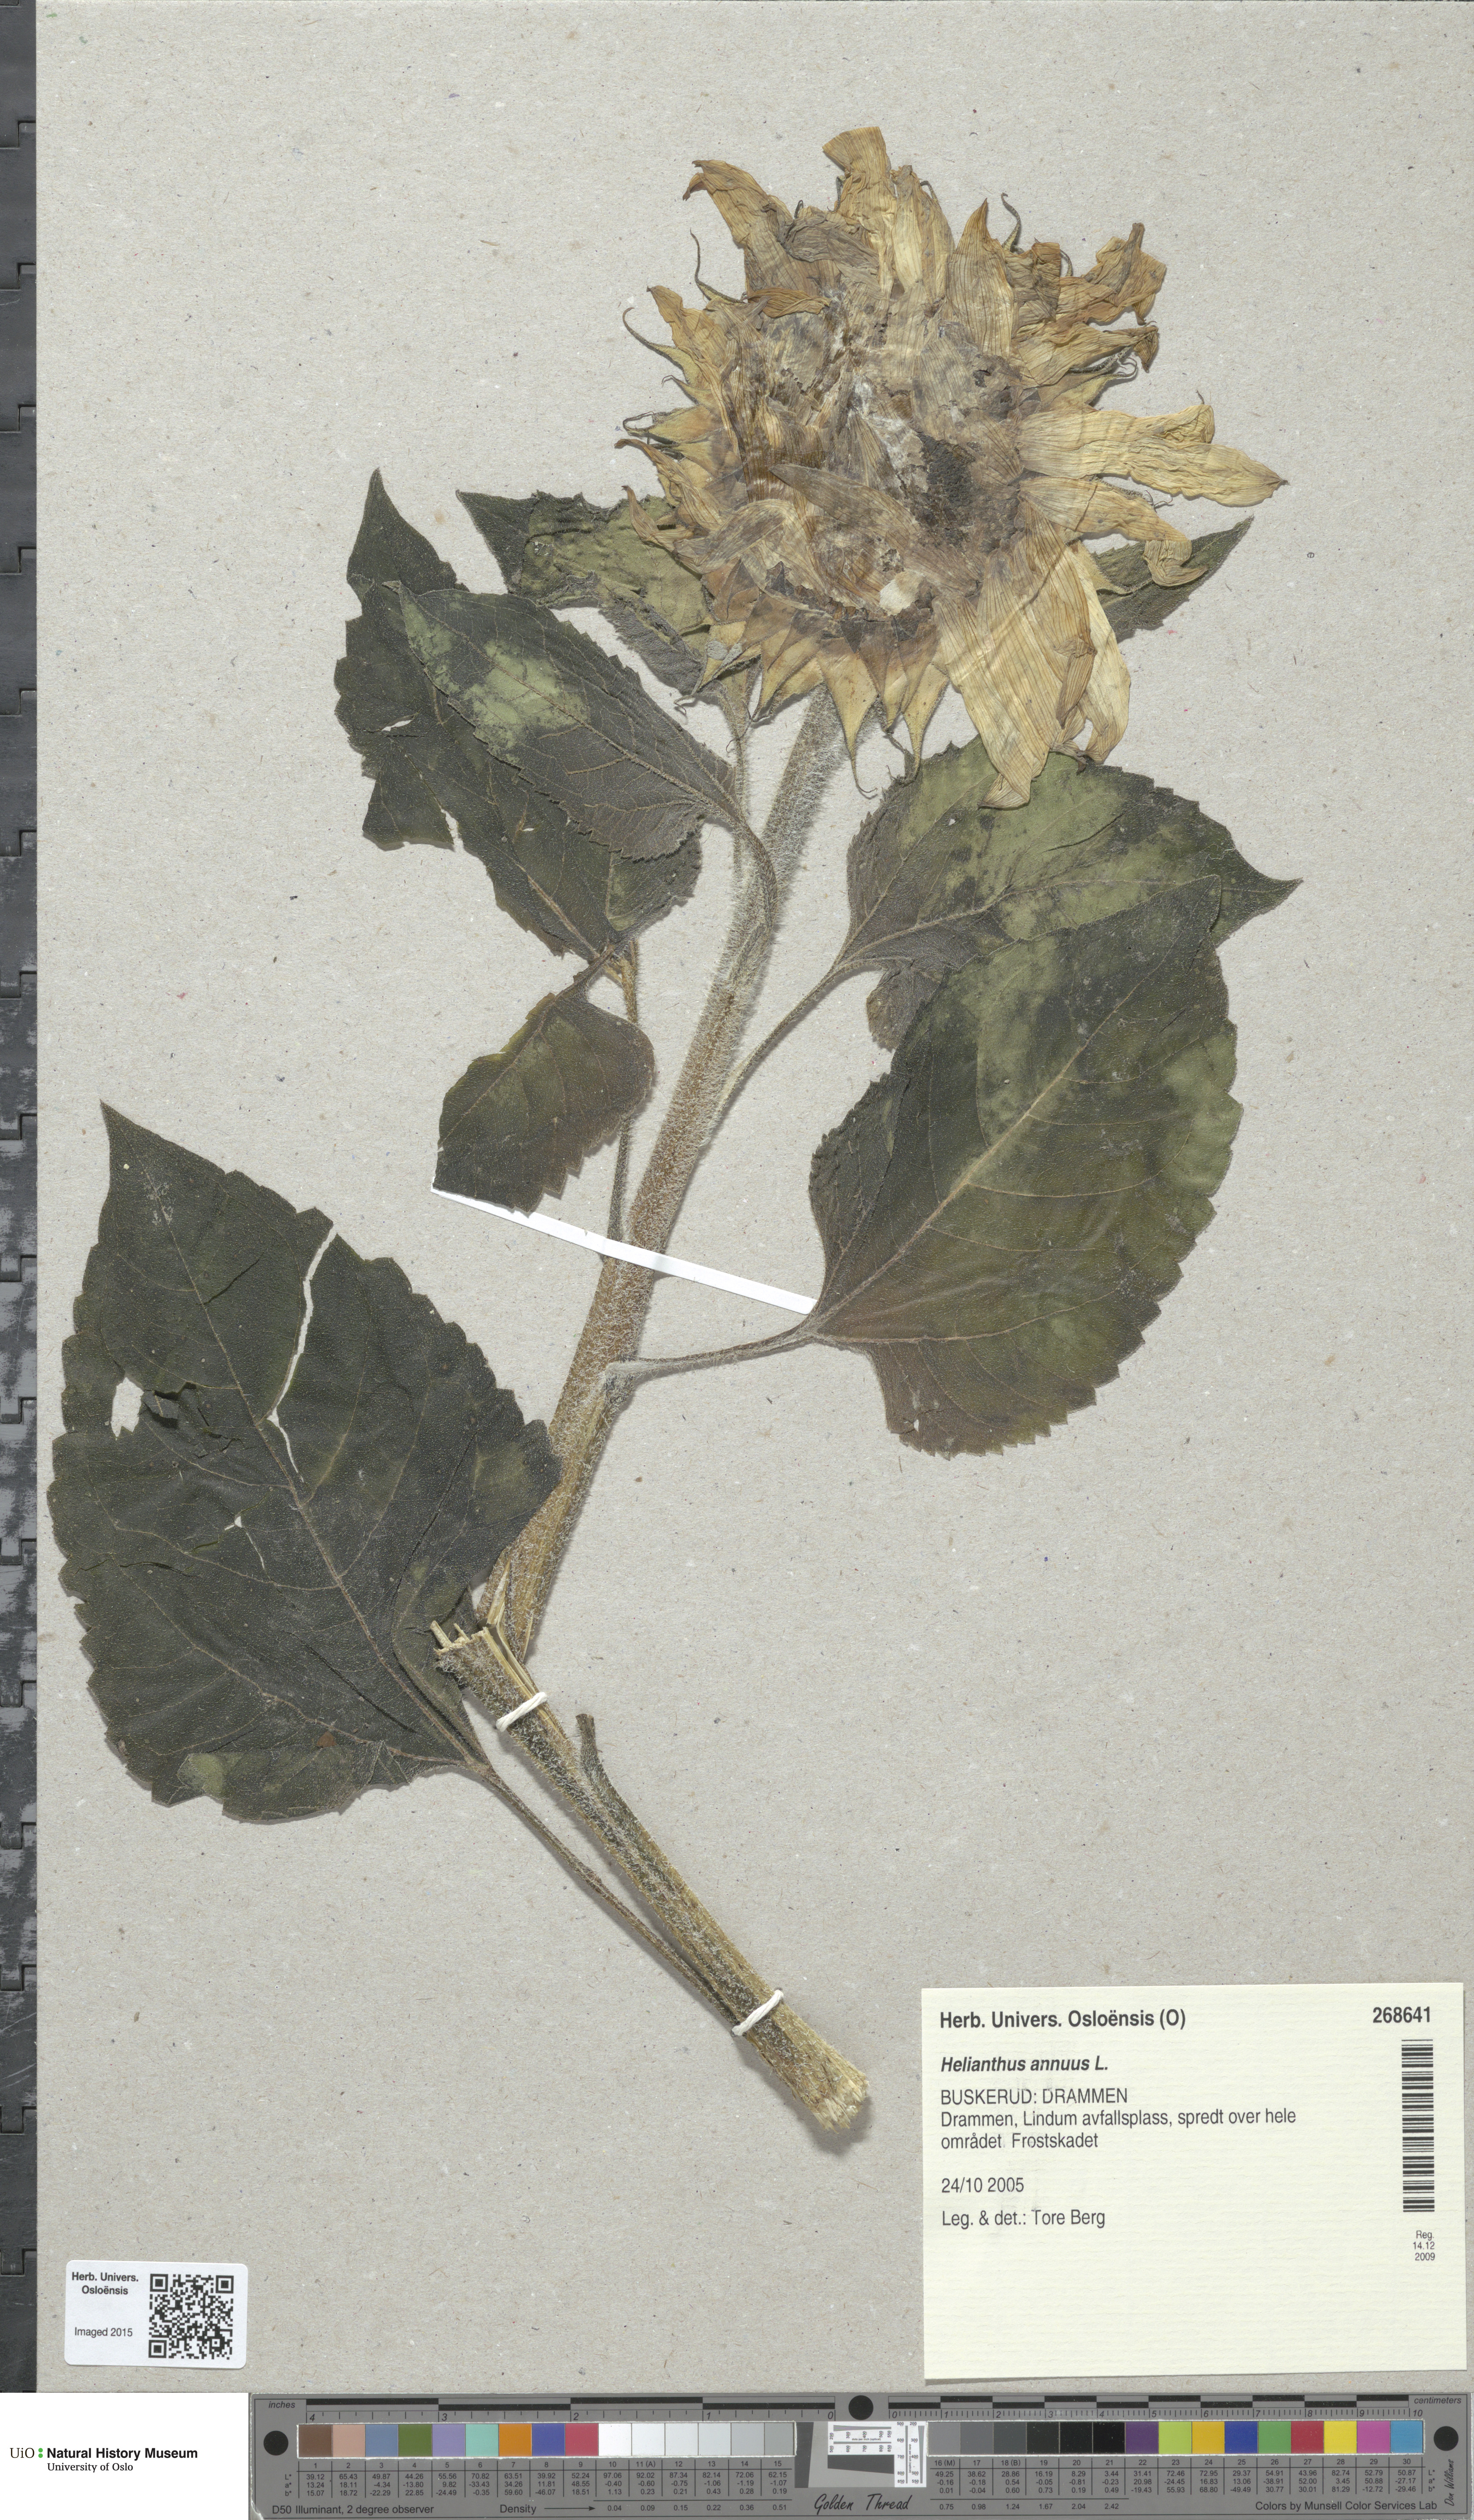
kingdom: Plantae
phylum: Tracheophyta
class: Magnoliopsida
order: Asterales
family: Asteraceae
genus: Helianthus
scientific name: Helianthus annuus
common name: Sunflower
